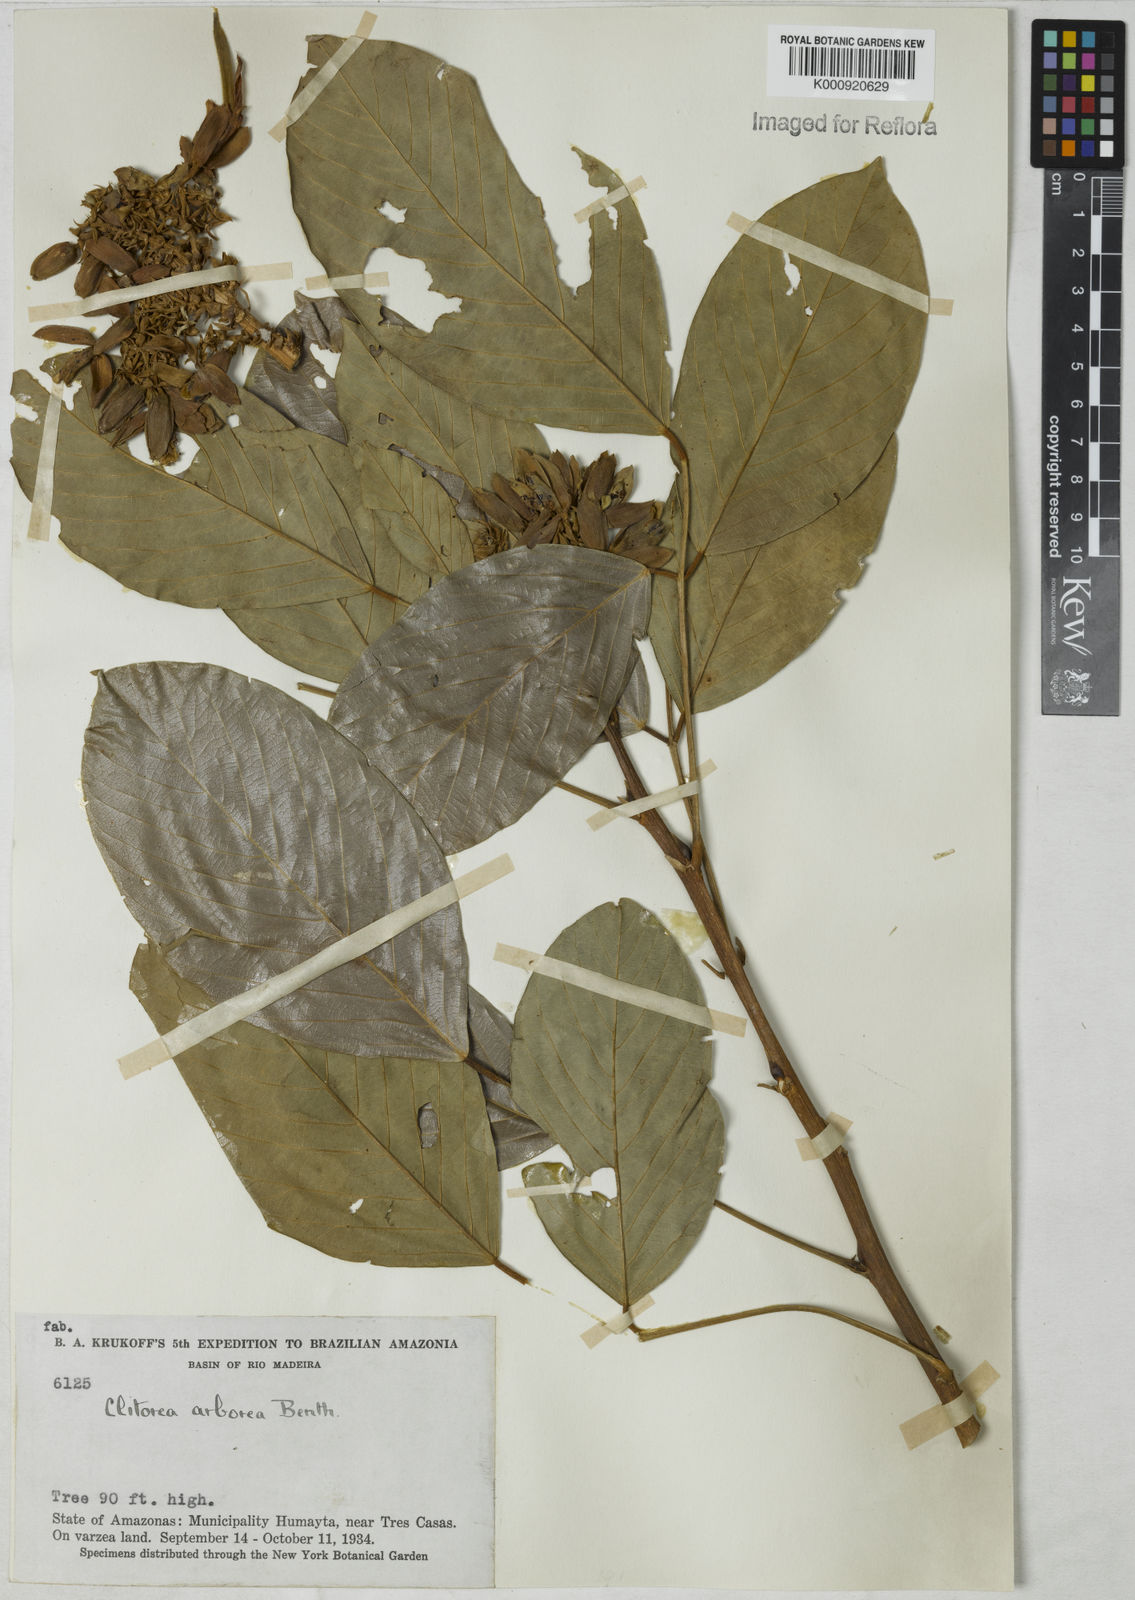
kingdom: Plantae
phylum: Tracheophyta
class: Magnoliopsida
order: Fabales
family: Fabaceae
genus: Clitoria
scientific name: Clitoria arborescens
